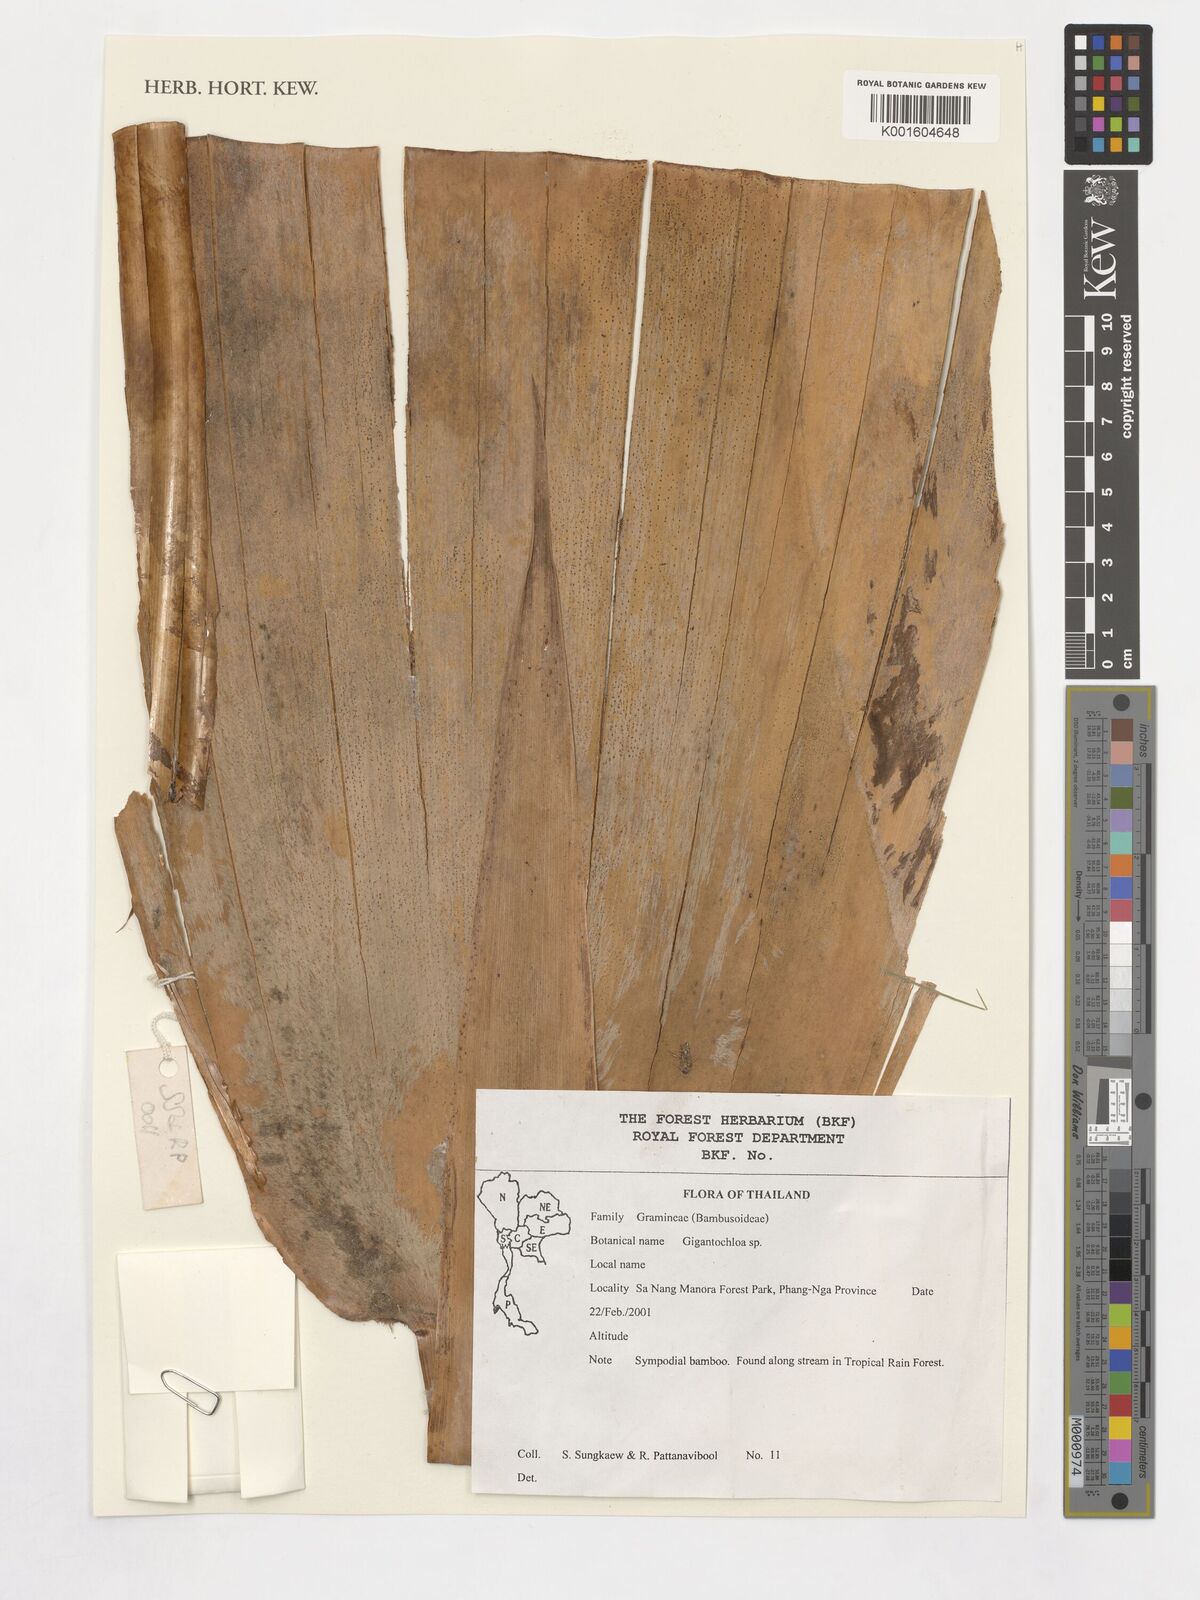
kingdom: Plantae
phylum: Tracheophyta
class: Liliopsida
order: Poales
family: Poaceae
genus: Gigantochloa
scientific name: Gigantochloa
